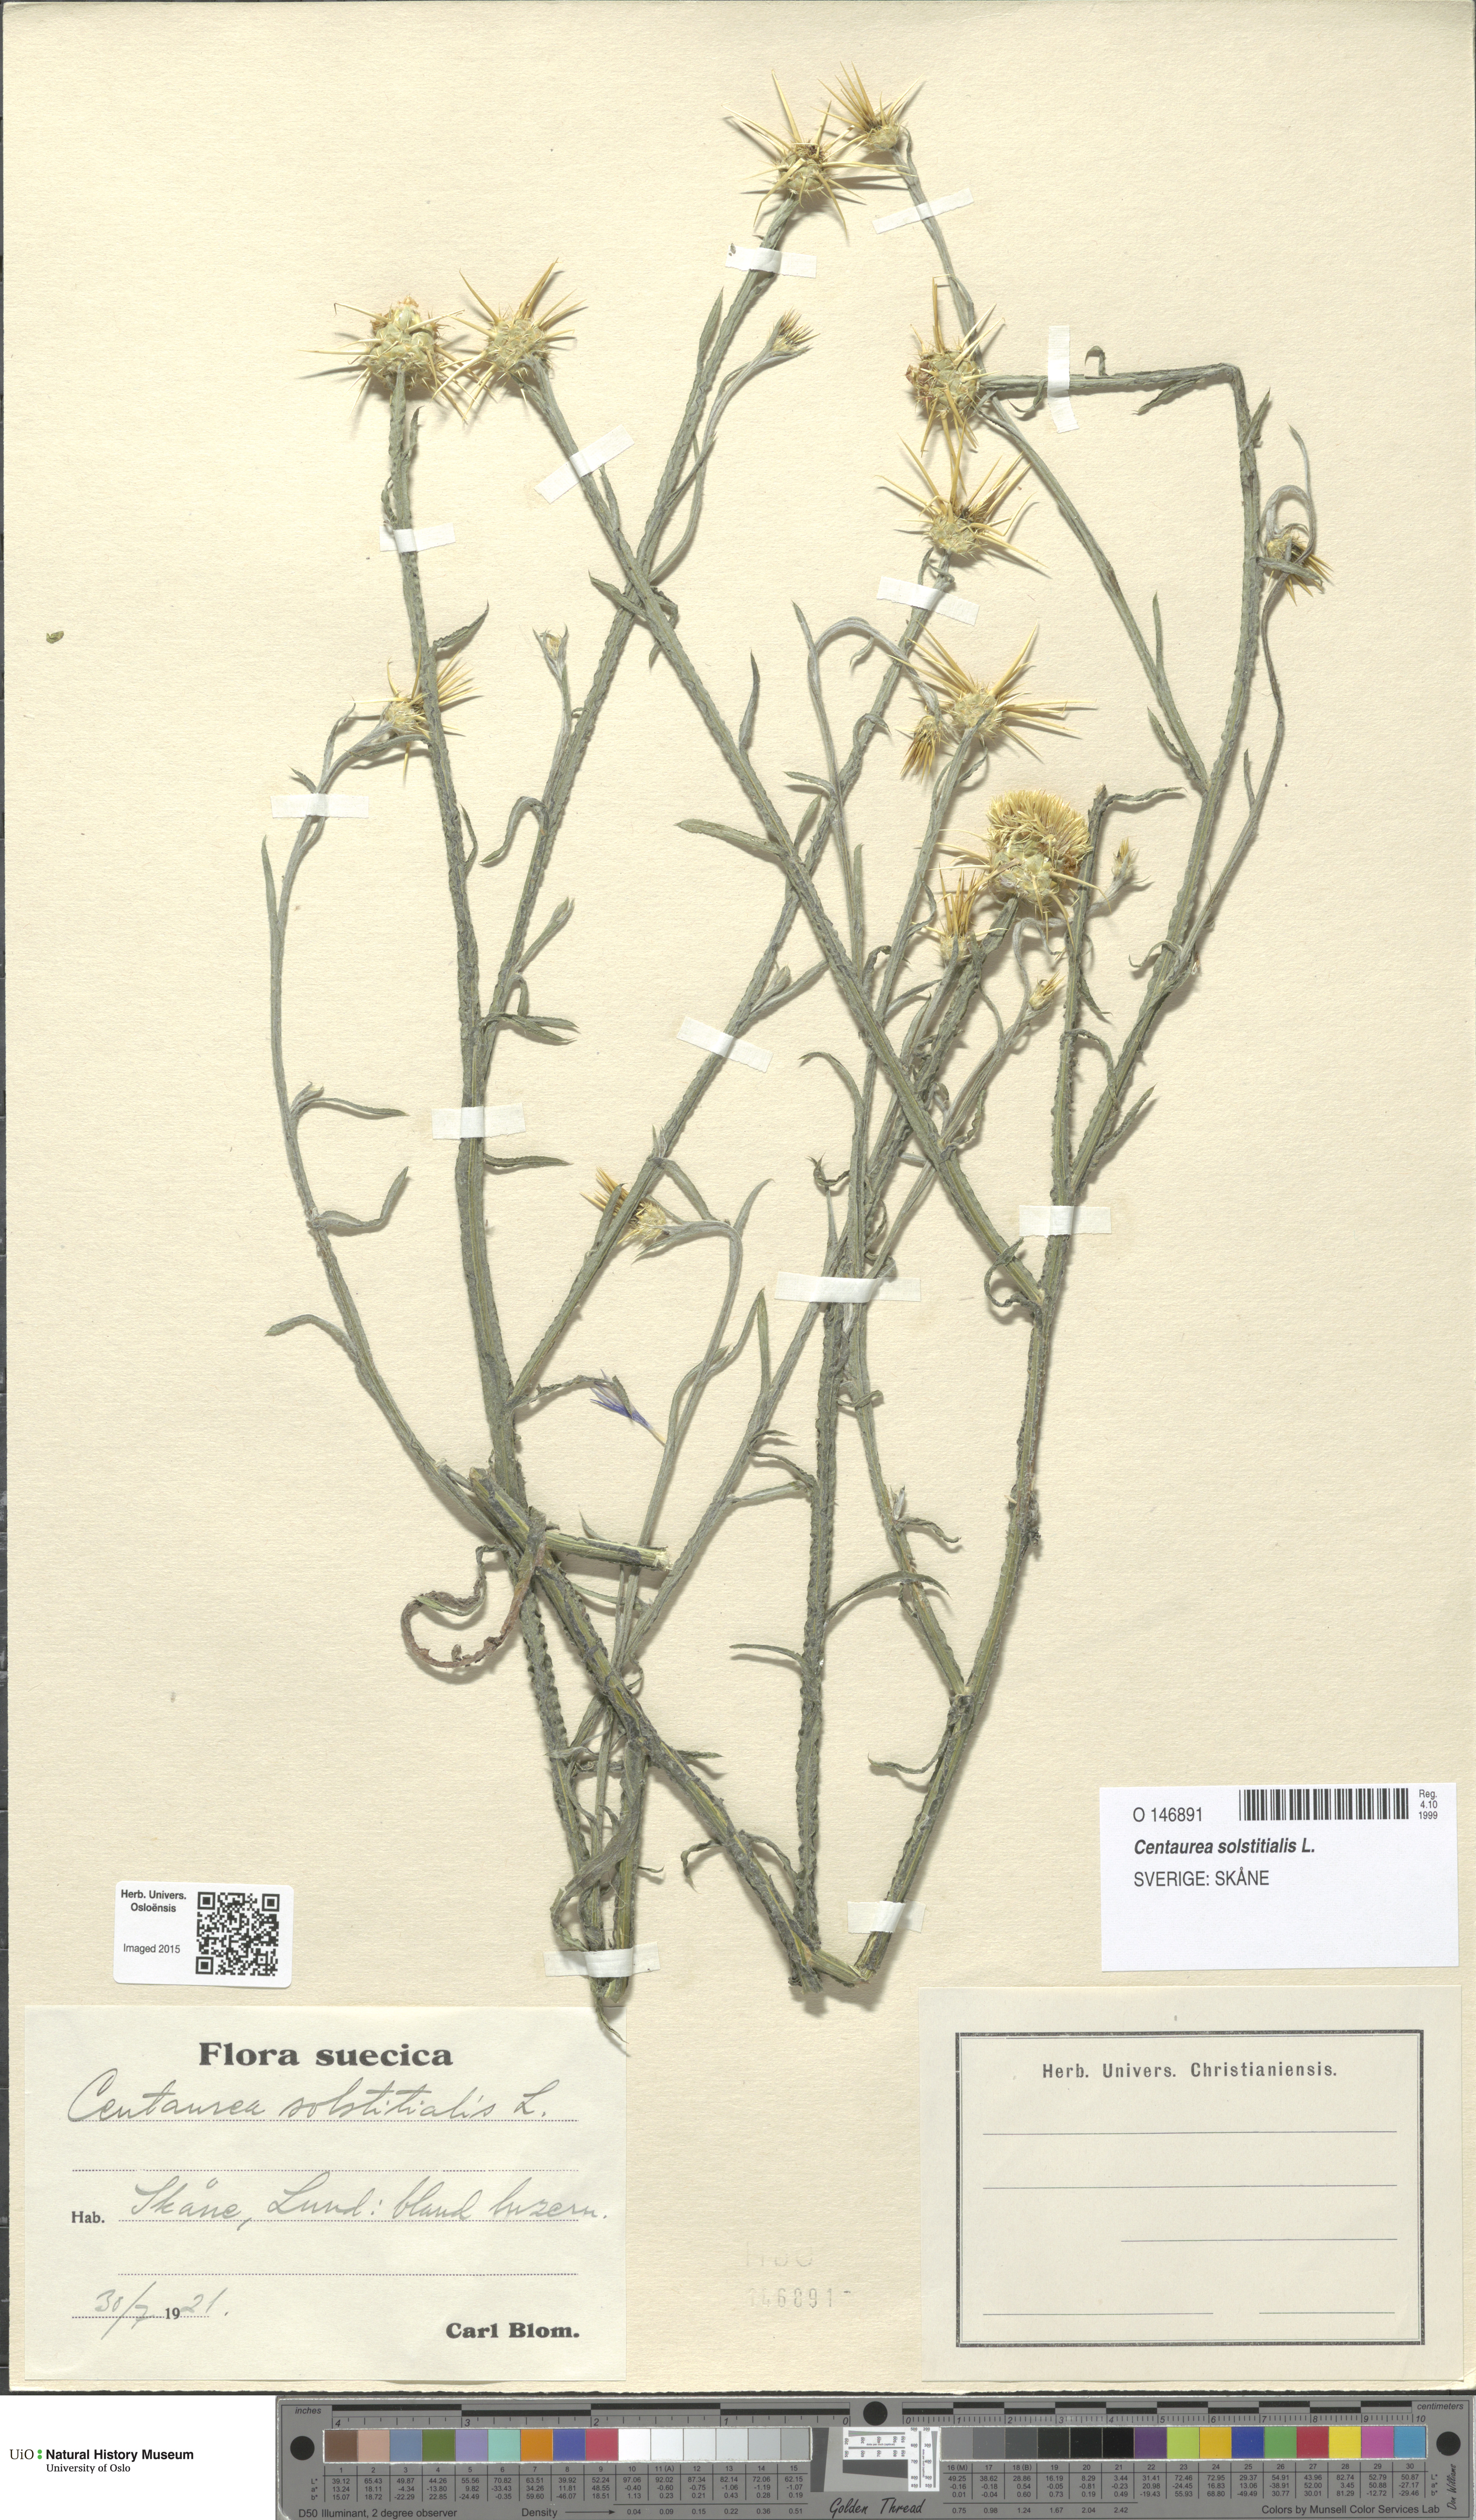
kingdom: Plantae
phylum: Tracheophyta
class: Magnoliopsida
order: Asterales
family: Asteraceae
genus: Centaurea
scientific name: Centaurea solstitialis
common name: Yellow star-thistle
